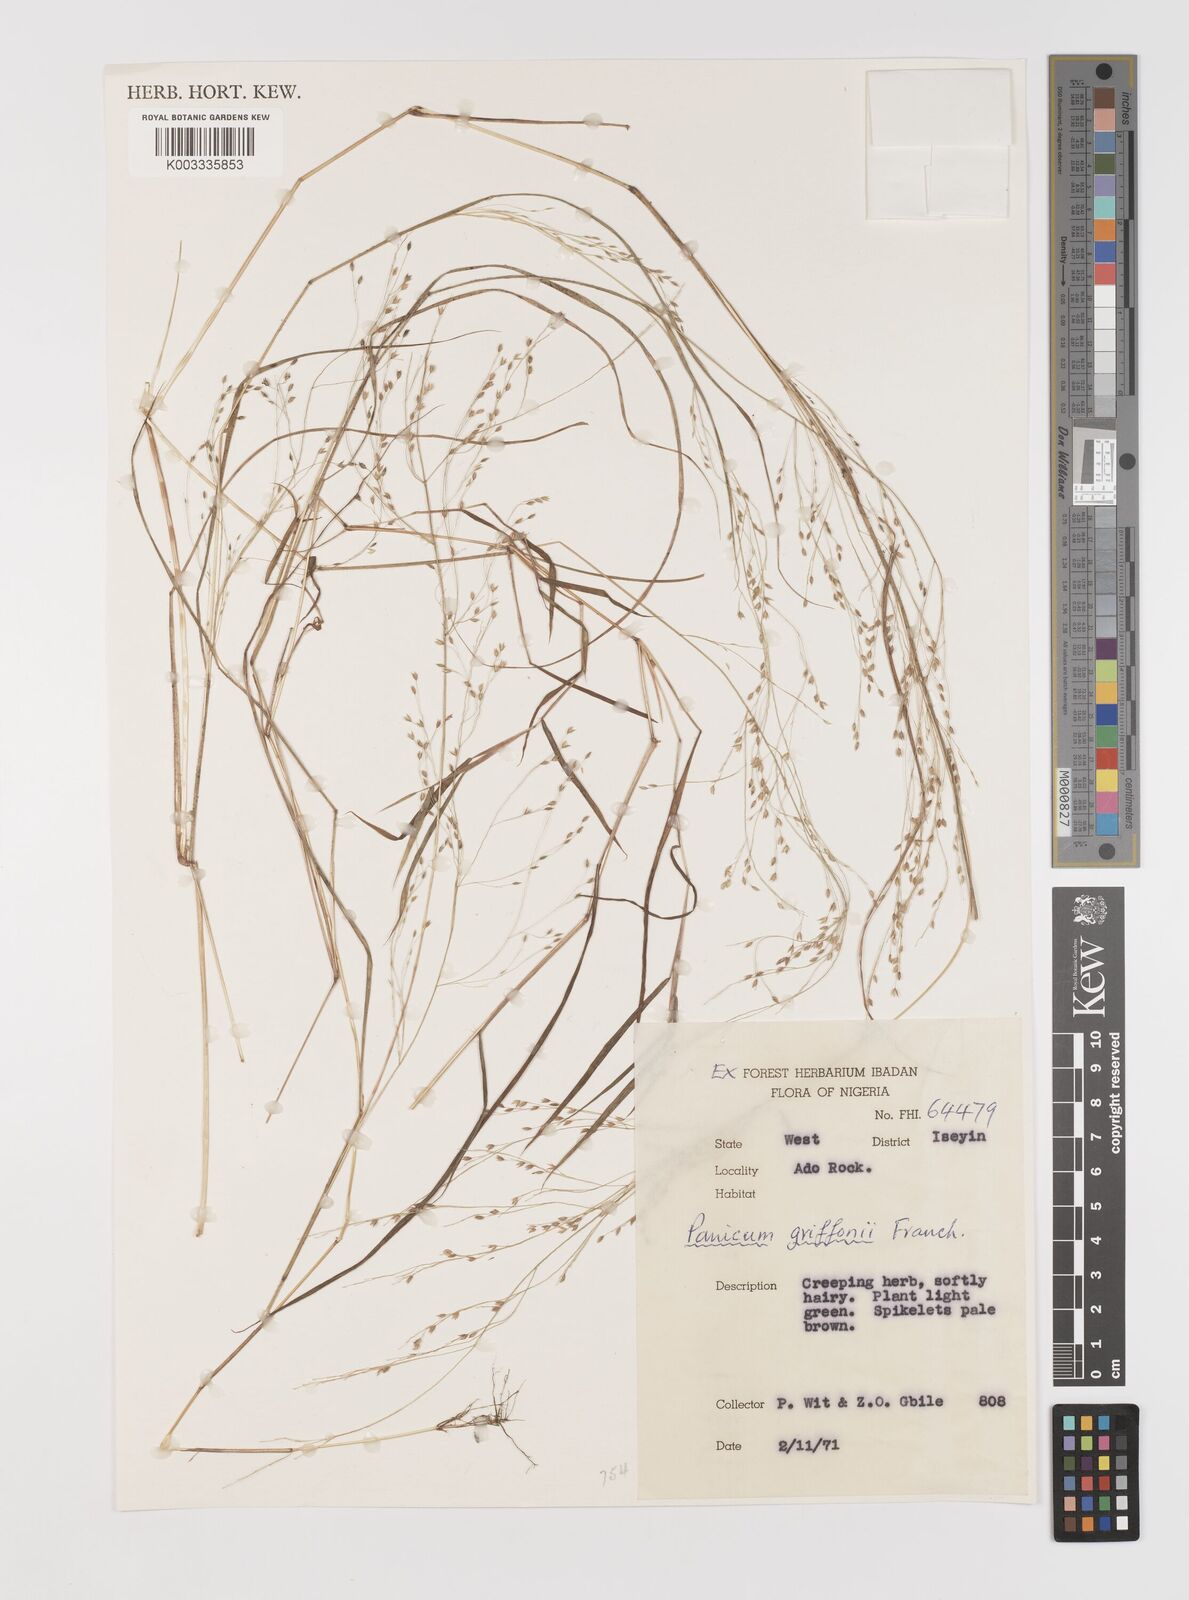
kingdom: Plantae
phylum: Tracheophyta
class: Liliopsida
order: Poales
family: Poaceae
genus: Panicum
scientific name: Panicum griffonii
